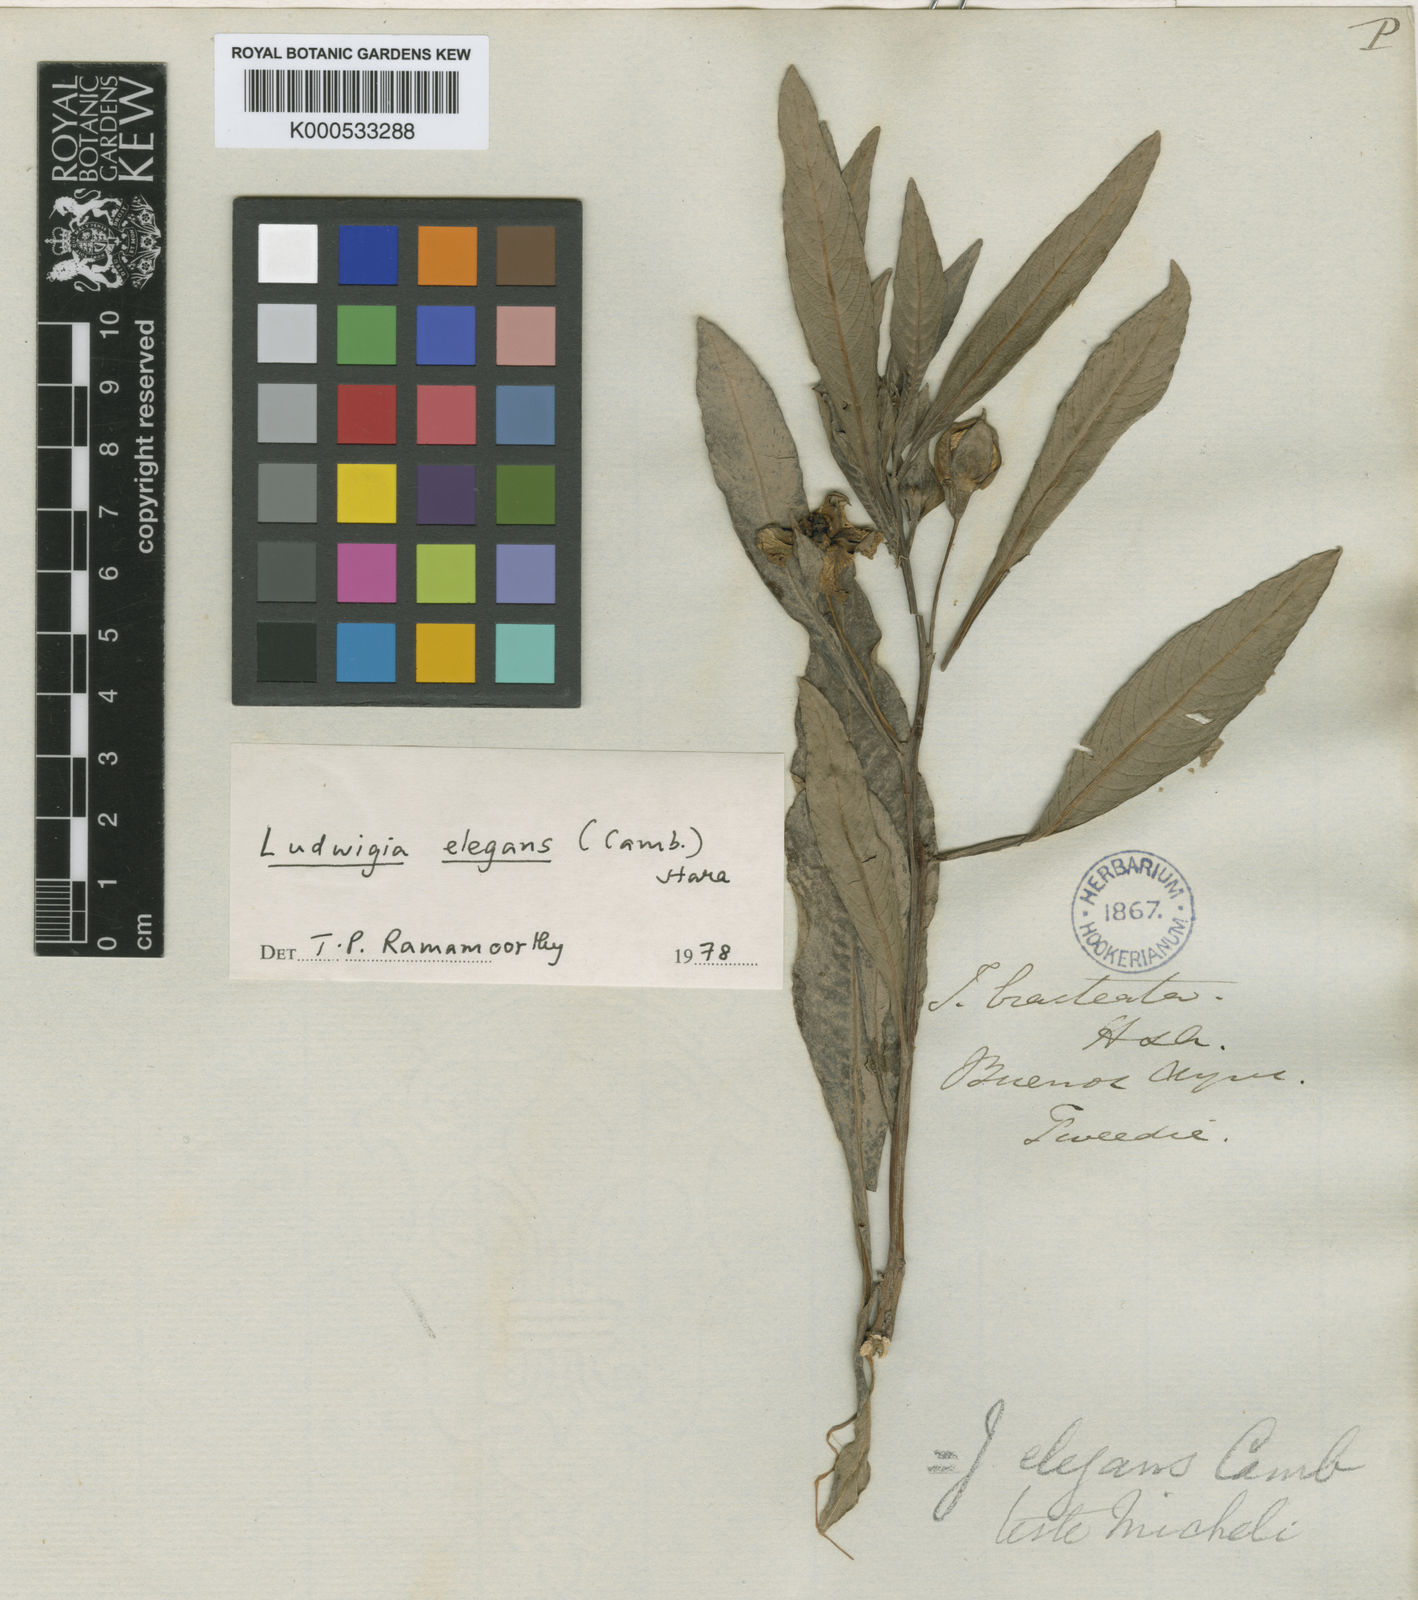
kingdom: Plantae
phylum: Tracheophyta
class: Magnoliopsida
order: Myrtales
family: Onagraceae
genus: Ludwigia
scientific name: Ludwigia elegans
